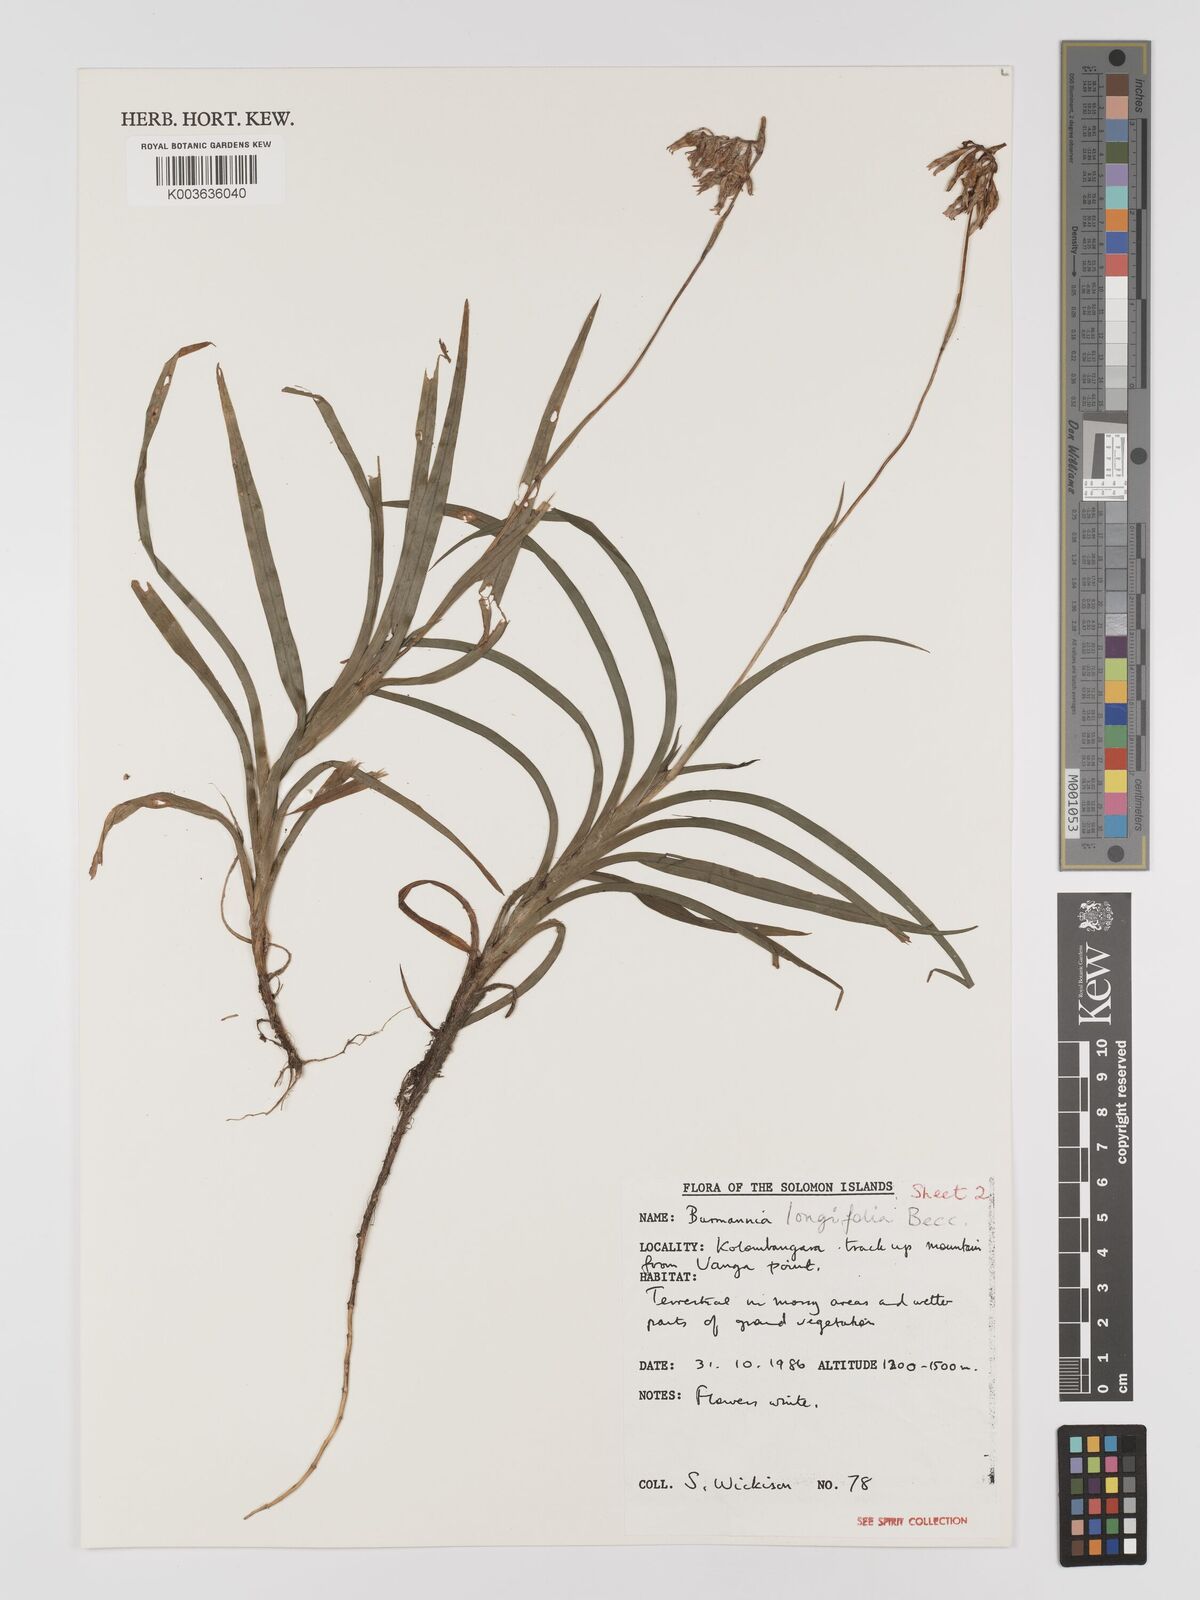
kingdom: Plantae
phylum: Tracheophyta
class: Liliopsida
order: Dioscoreales
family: Burmanniaceae
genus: Burmannia
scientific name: Burmannia longifolia
